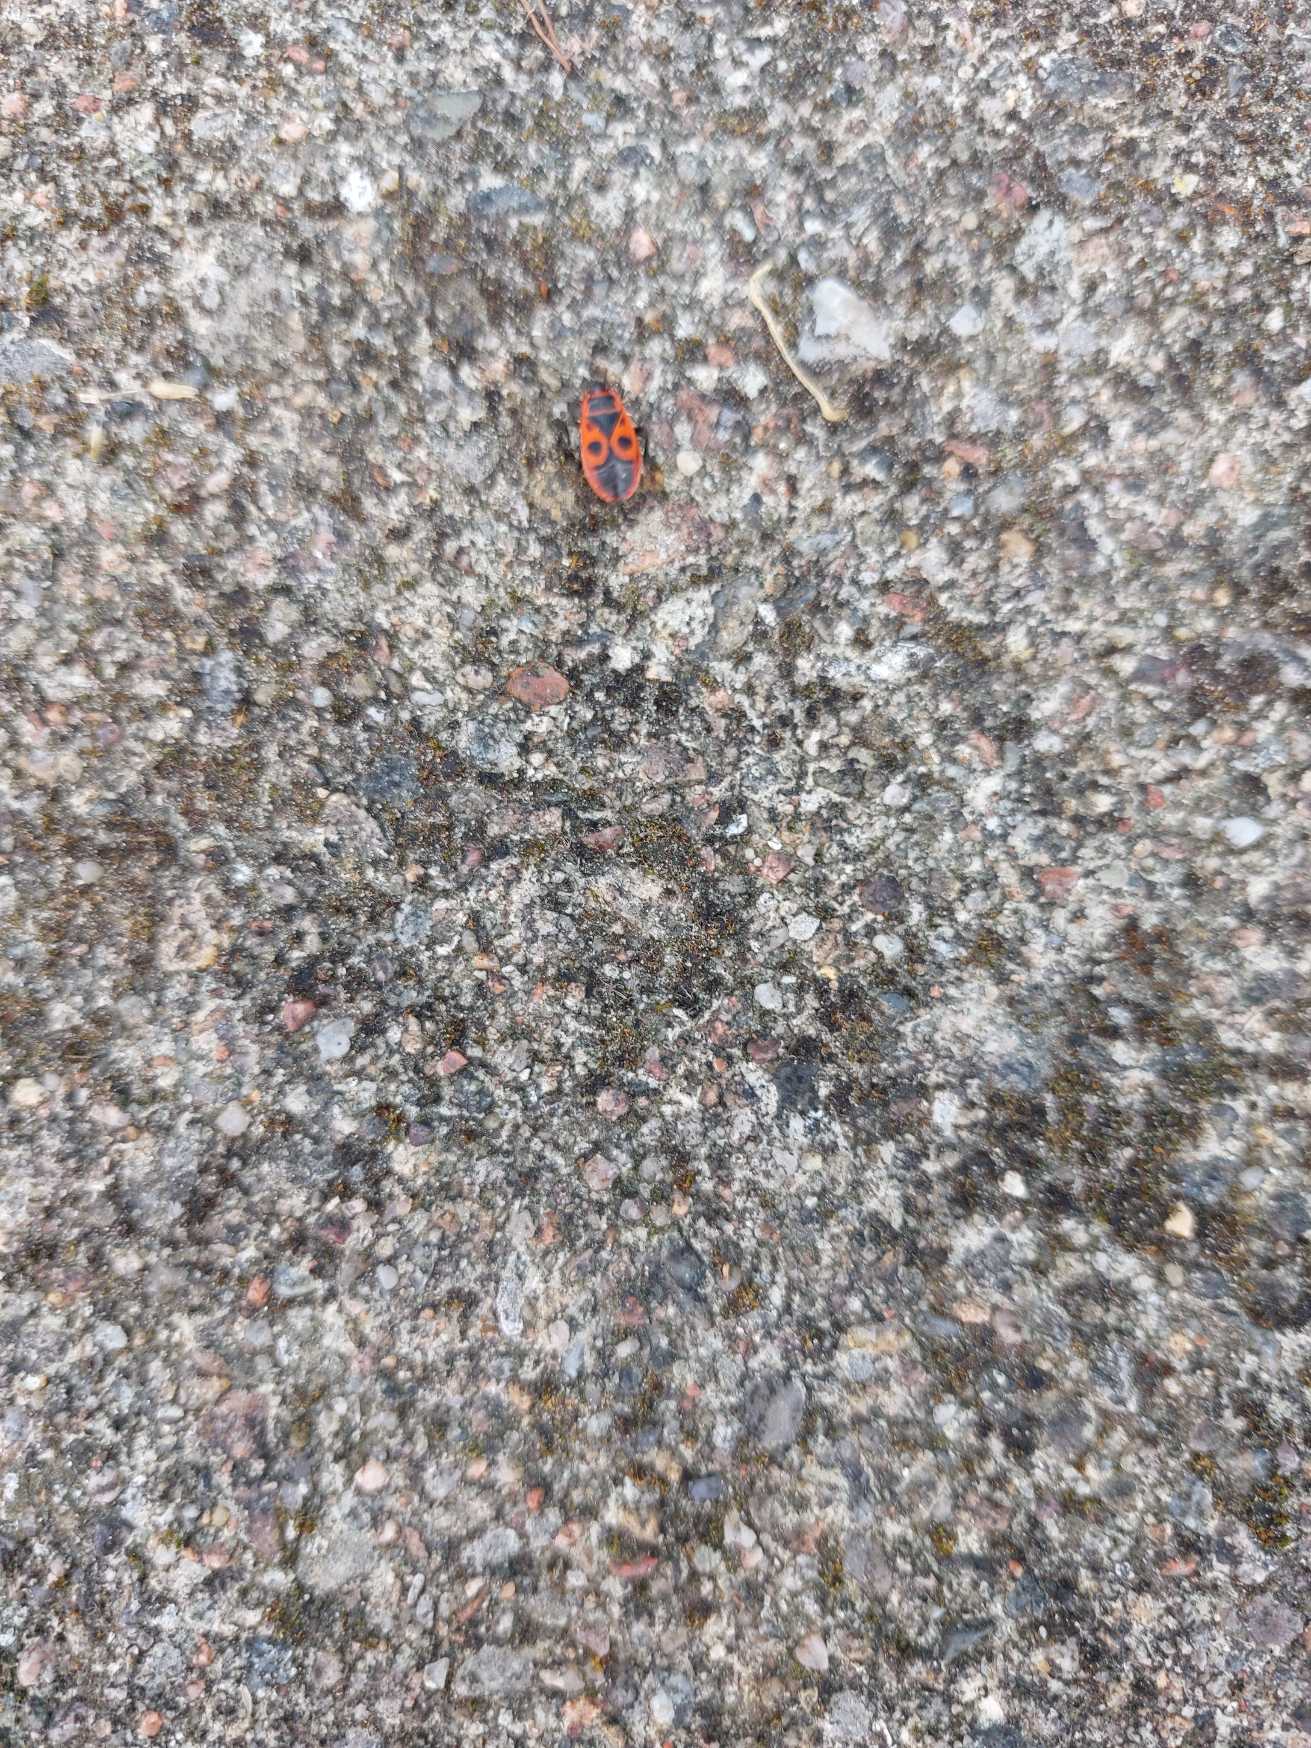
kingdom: Animalia
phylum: Arthropoda
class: Insecta
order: Hemiptera
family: Pyrrhocoridae
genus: Pyrrhocoris
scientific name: Pyrrhocoris apterus
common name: Ildtæge
